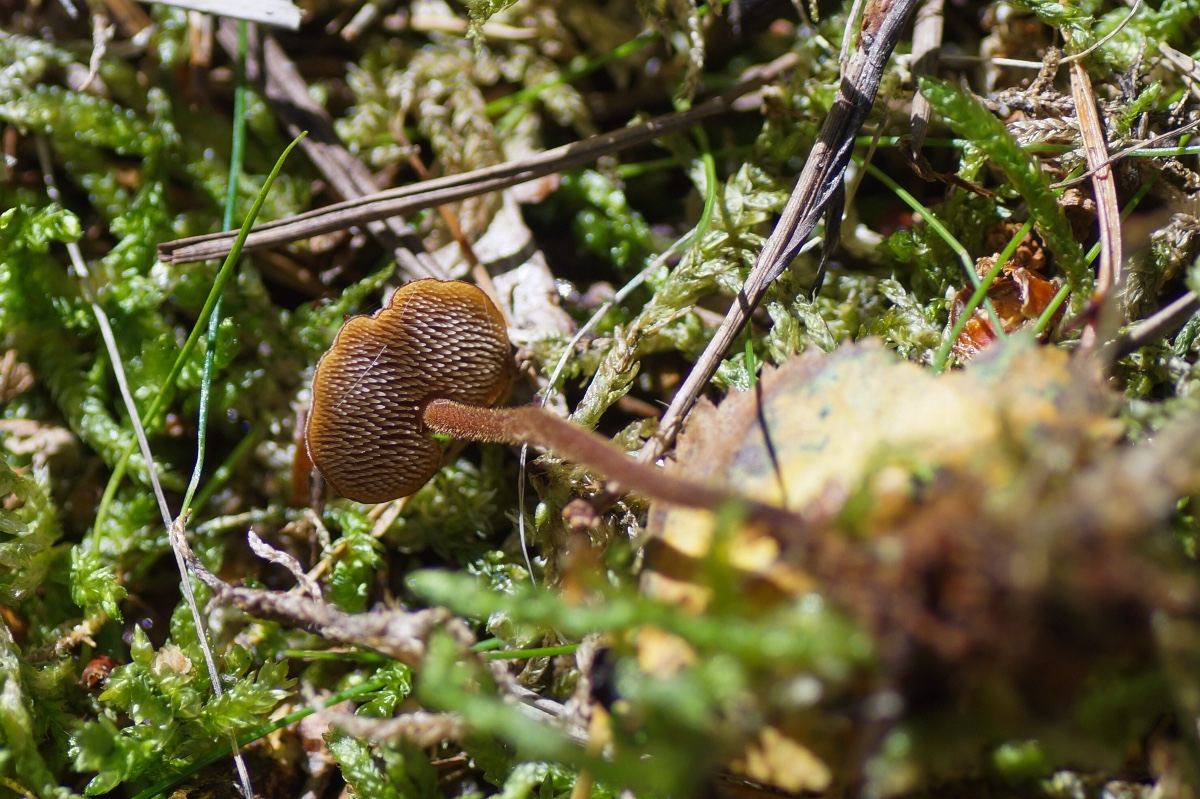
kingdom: Fungi
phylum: Basidiomycota
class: Agaricomycetes
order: Russulales
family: Auriscalpiaceae
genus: Auriscalpium
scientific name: Auriscalpium vulgare
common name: koglepigsvamp
